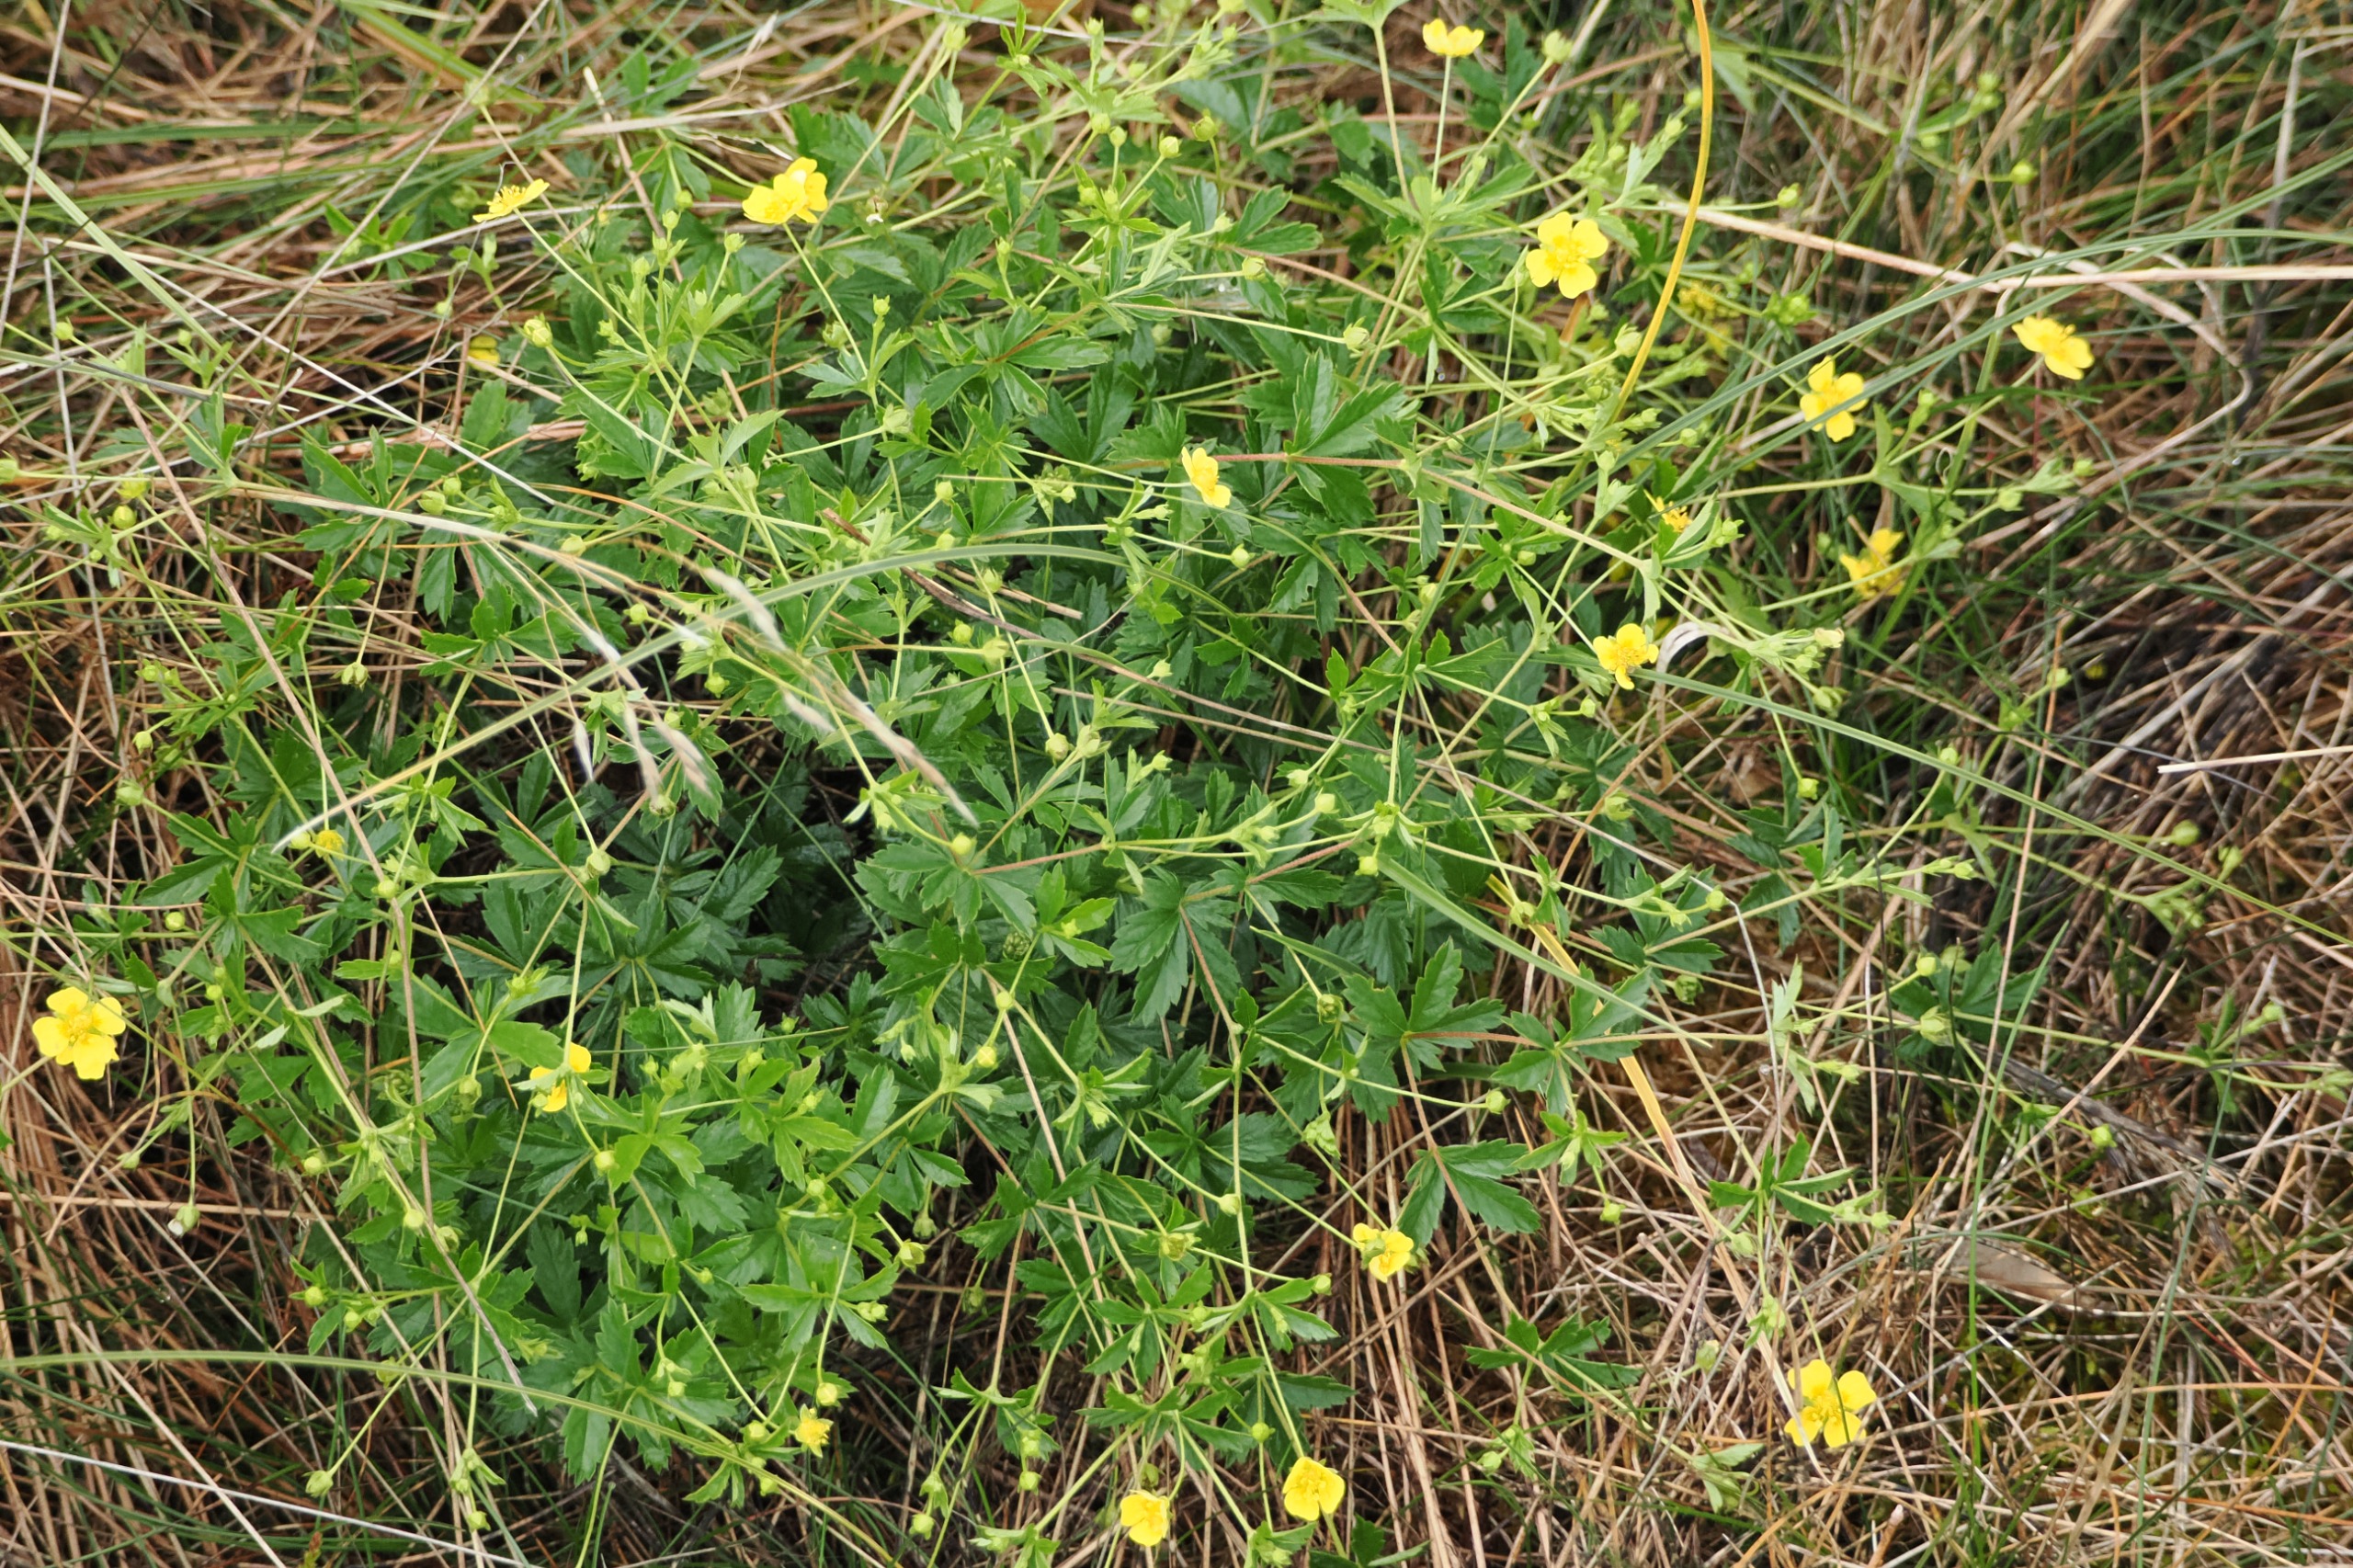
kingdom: Plantae
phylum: Tracheophyta
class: Magnoliopsida
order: Rosales
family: Rosaceae
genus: Potentilla
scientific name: Potentilla erecta
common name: Tormentil
